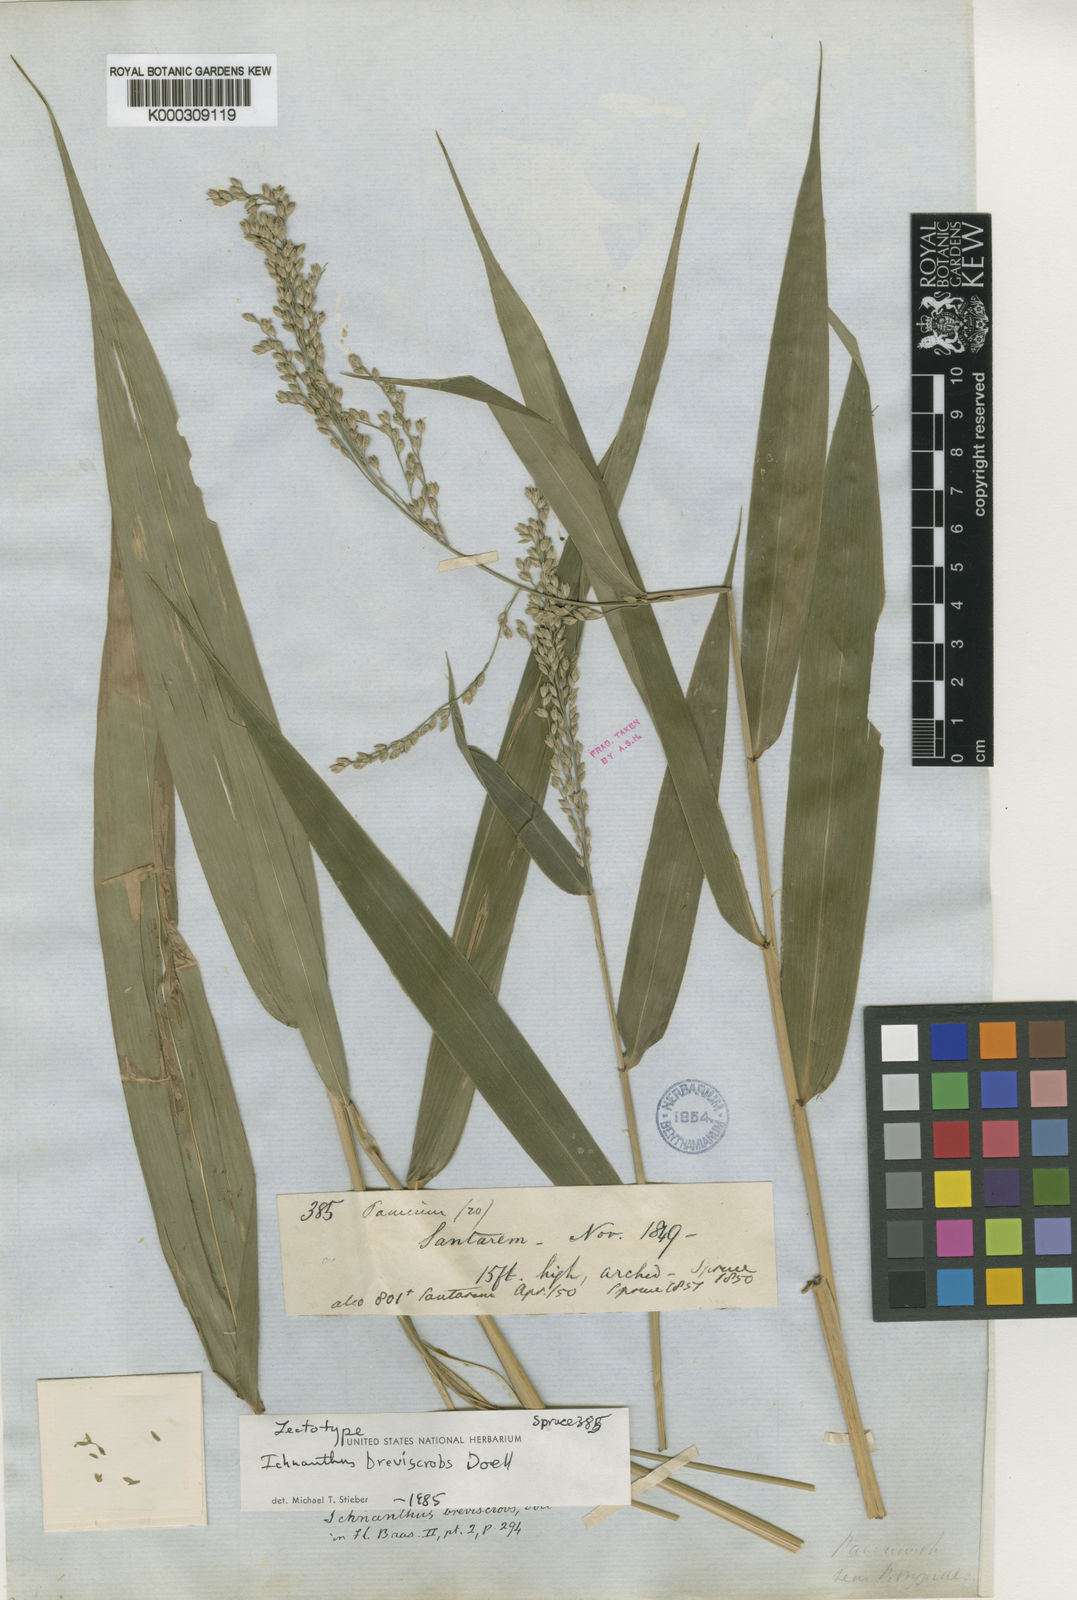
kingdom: Plantae
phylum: Tracheophyta
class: Liliopsida
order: Poales
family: Poaceae
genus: Ichnanthus
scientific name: Ichnanthus
